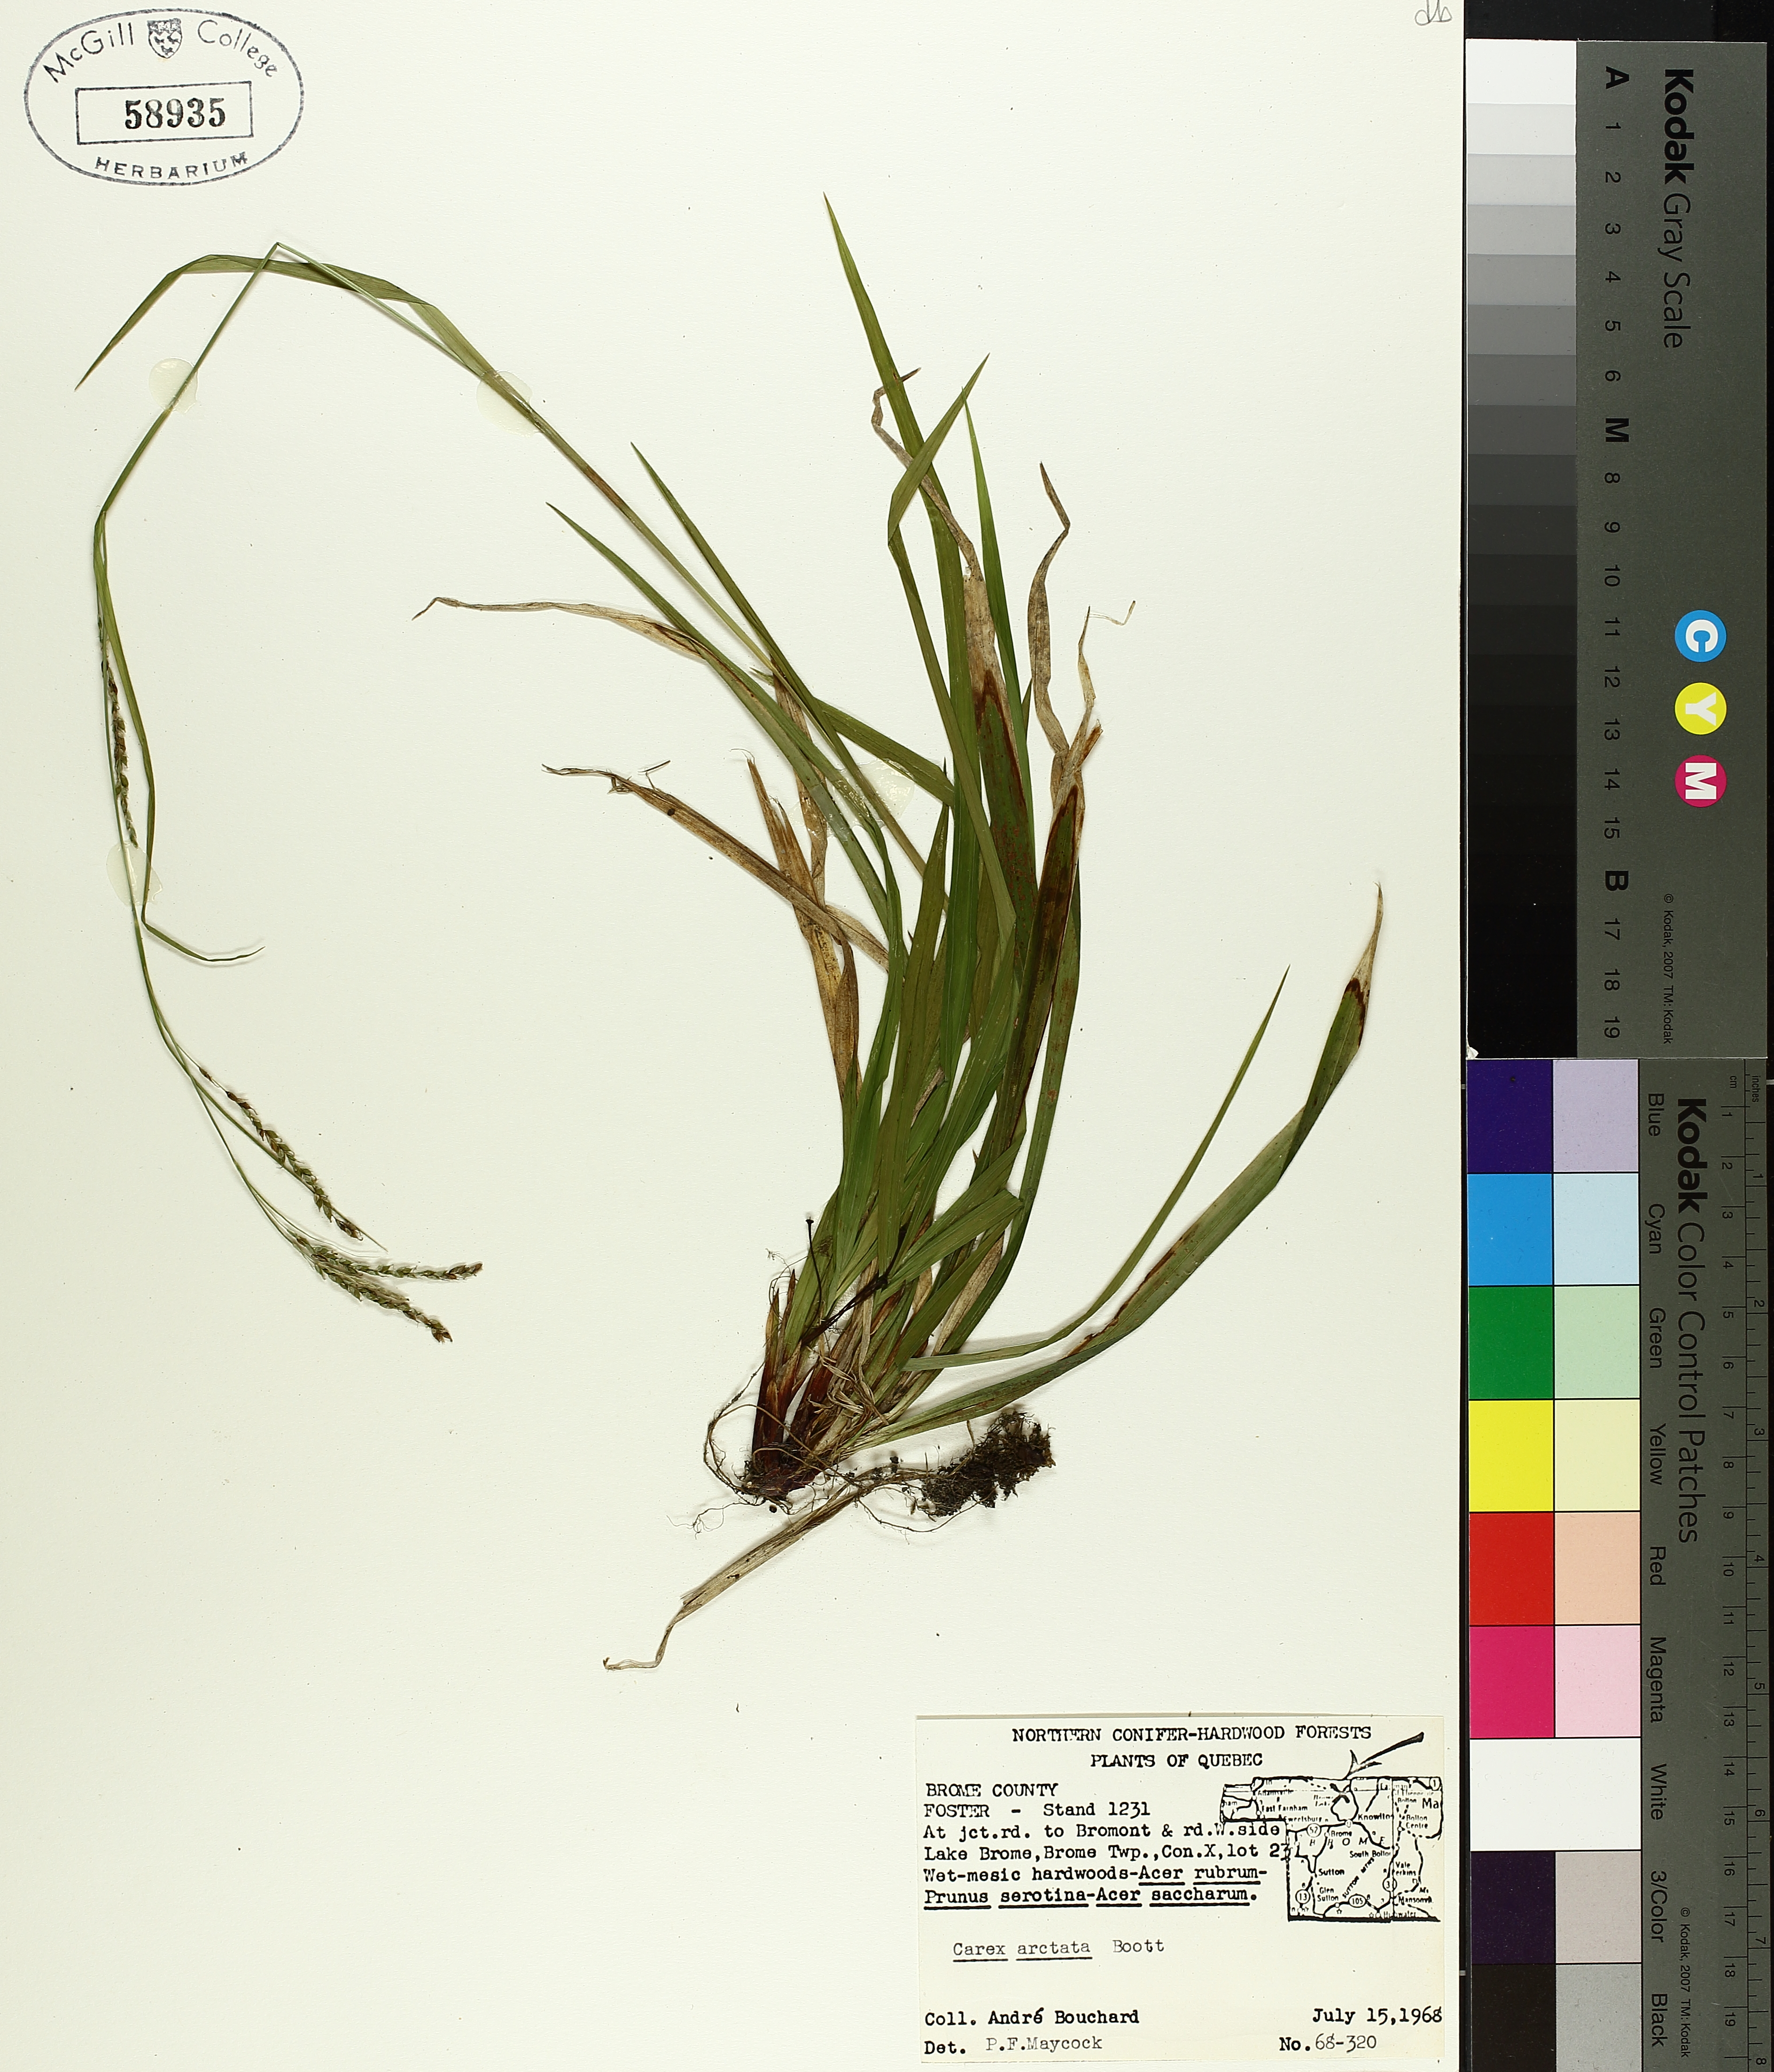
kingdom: Plantae
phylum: Tracheophyta
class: Liliopsida
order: Poales
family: Cyperaceae
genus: Carex
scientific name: Carex arctata
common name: Black sedge
